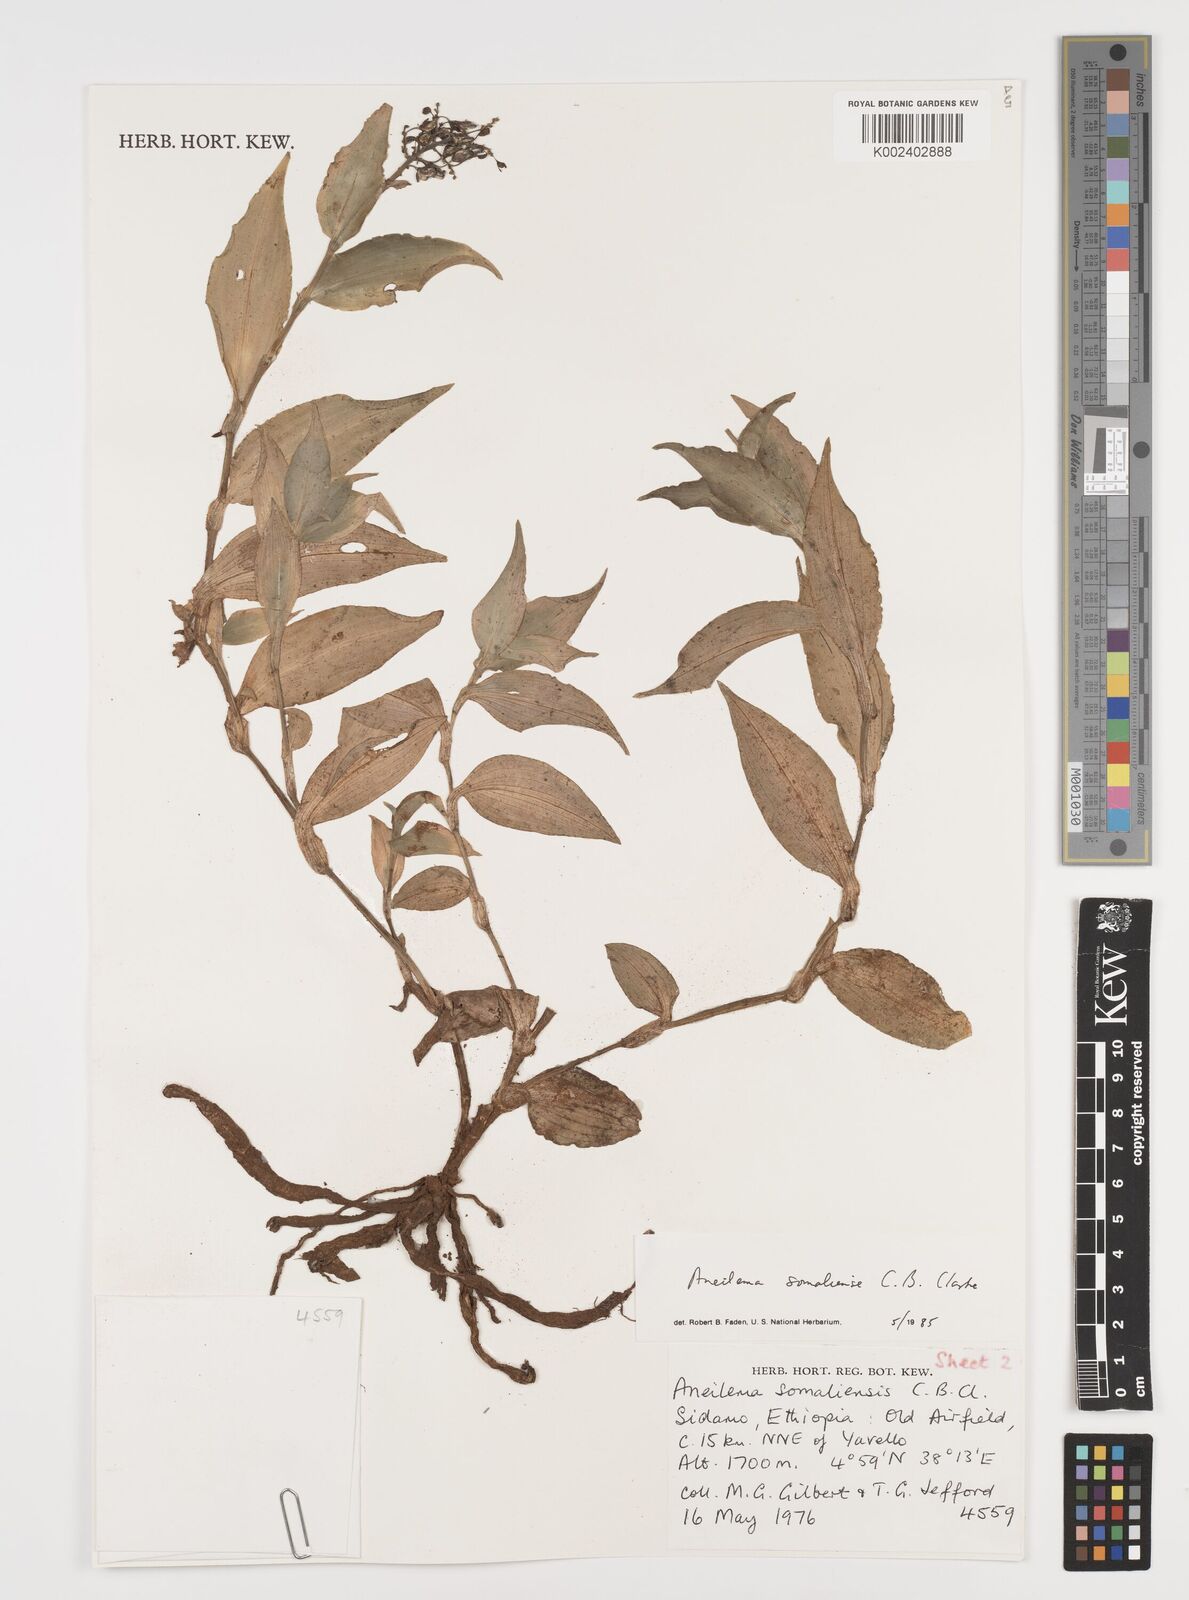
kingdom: Plantae
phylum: Tracheophyta
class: Liliopsida
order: Commelinales
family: Commelinaceae
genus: Aneilema
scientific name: Aneilema somaliense
